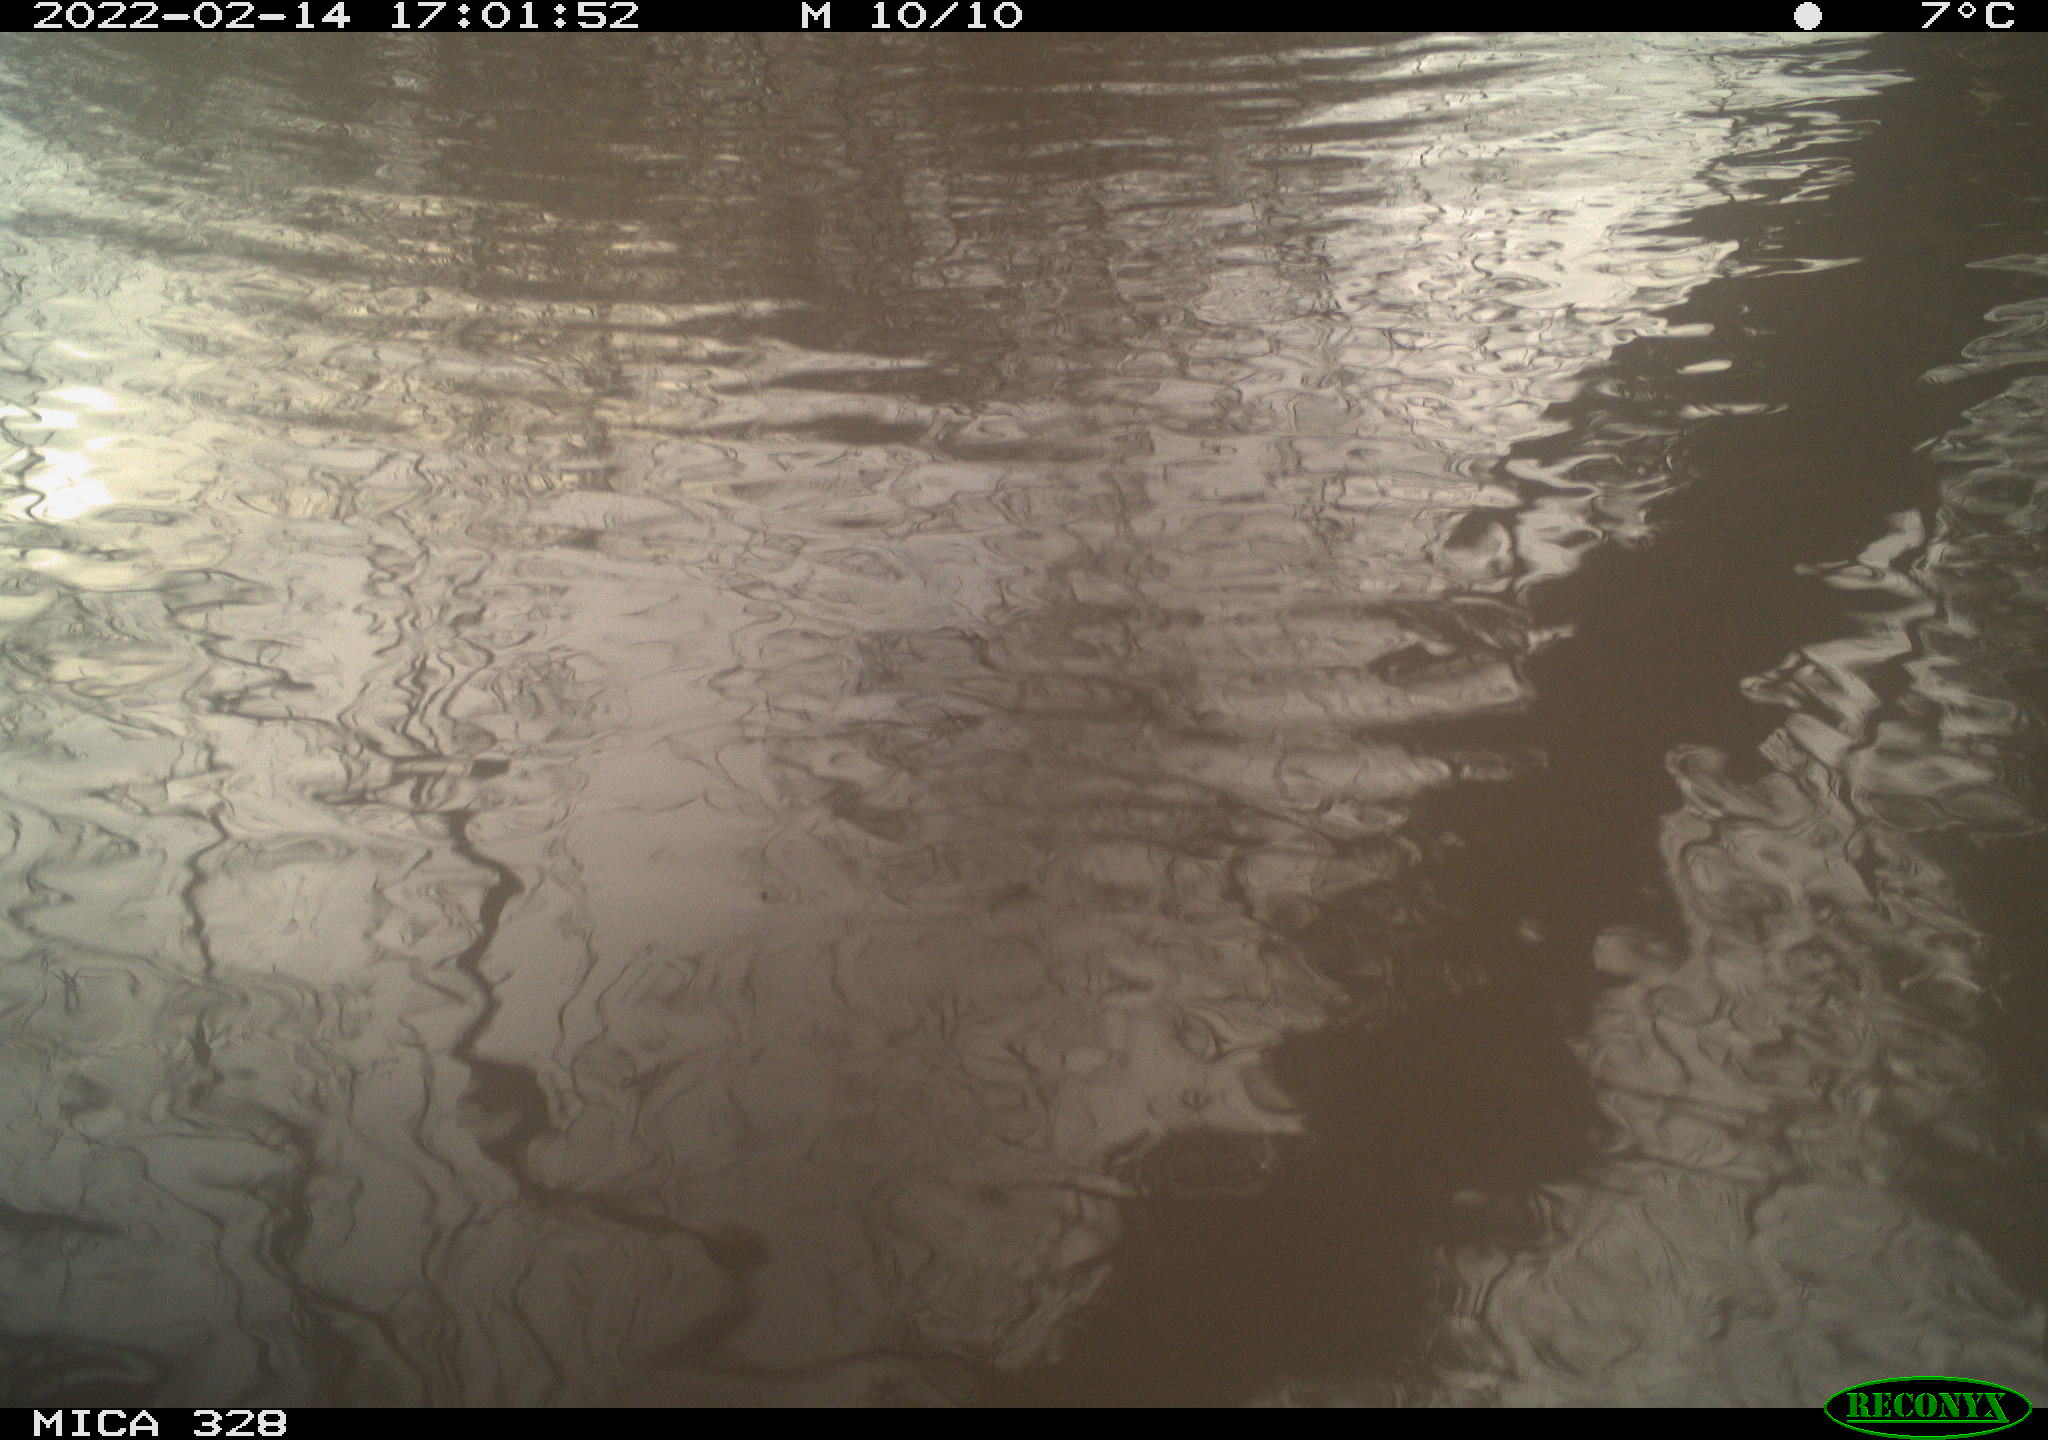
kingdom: Animalia
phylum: Chordata
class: Mammalia
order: Rodentia
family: Cricetidae
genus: Ondatra
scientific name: Ondatra zibethicus
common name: Muskrat
